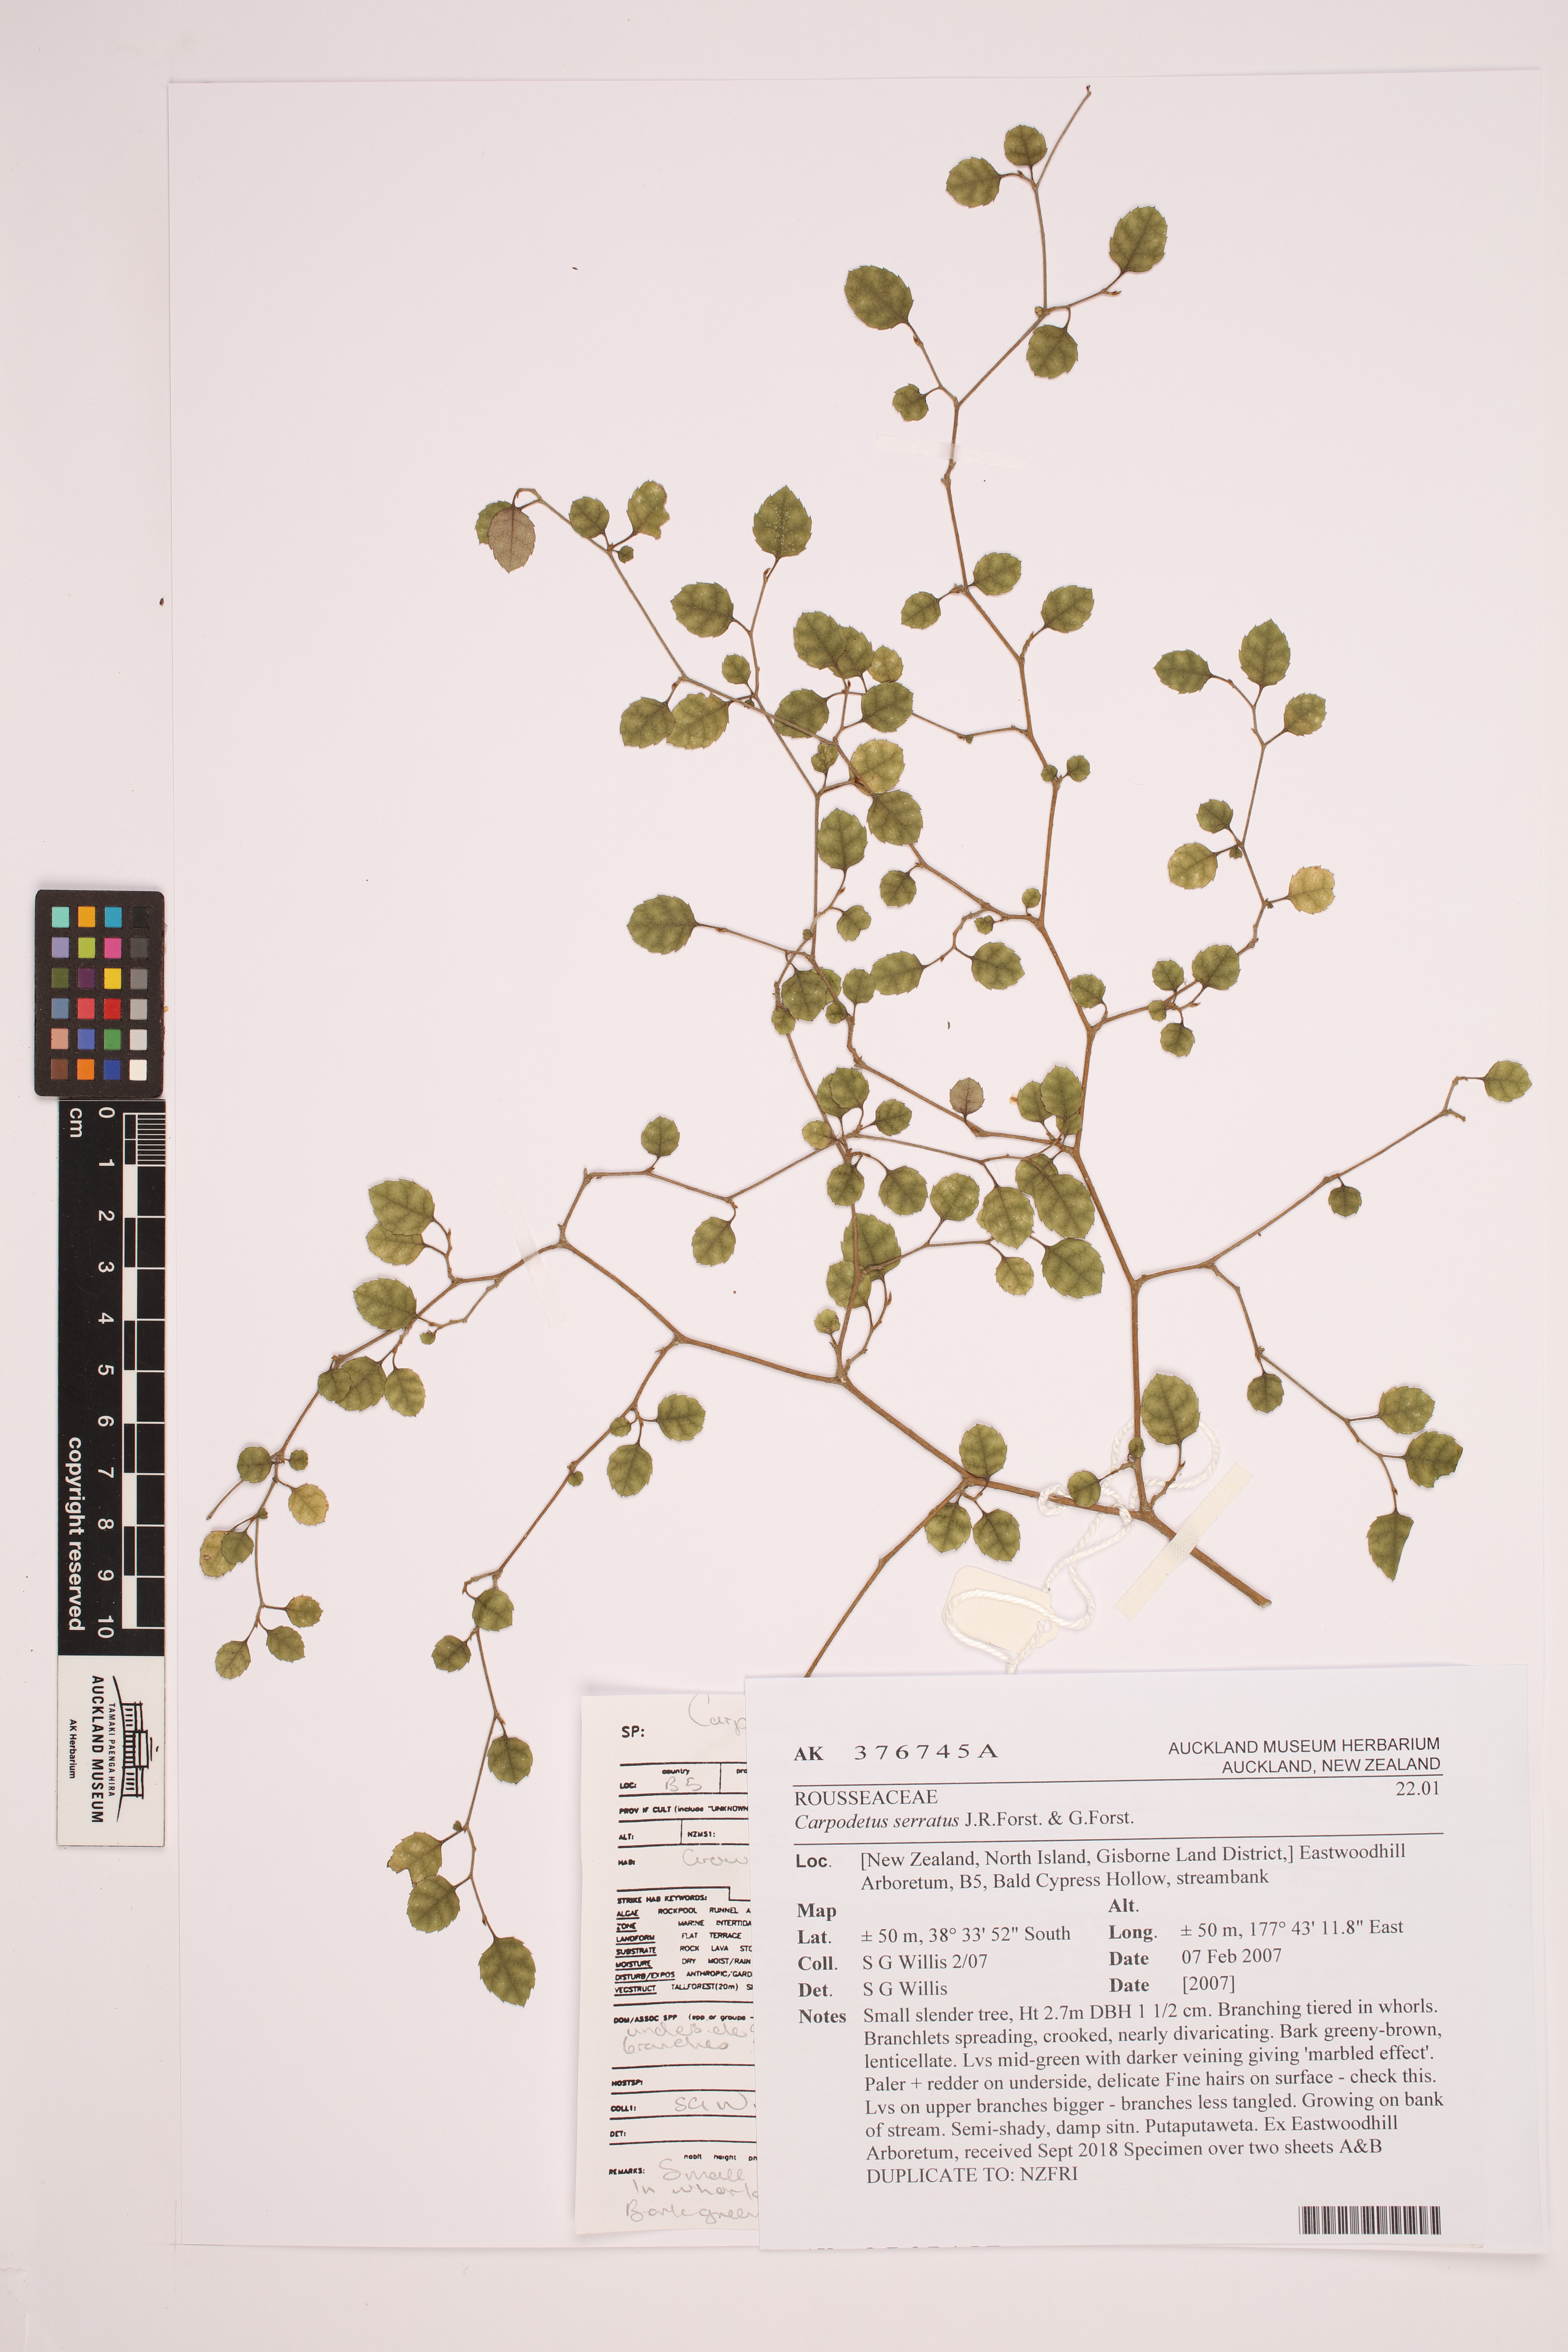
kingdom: Plantae
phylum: Tracheophyta
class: Magnoliopsida
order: Asterales
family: Rousseaceae
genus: Carpodetus
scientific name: Carpodetus serratus
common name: White mapau
